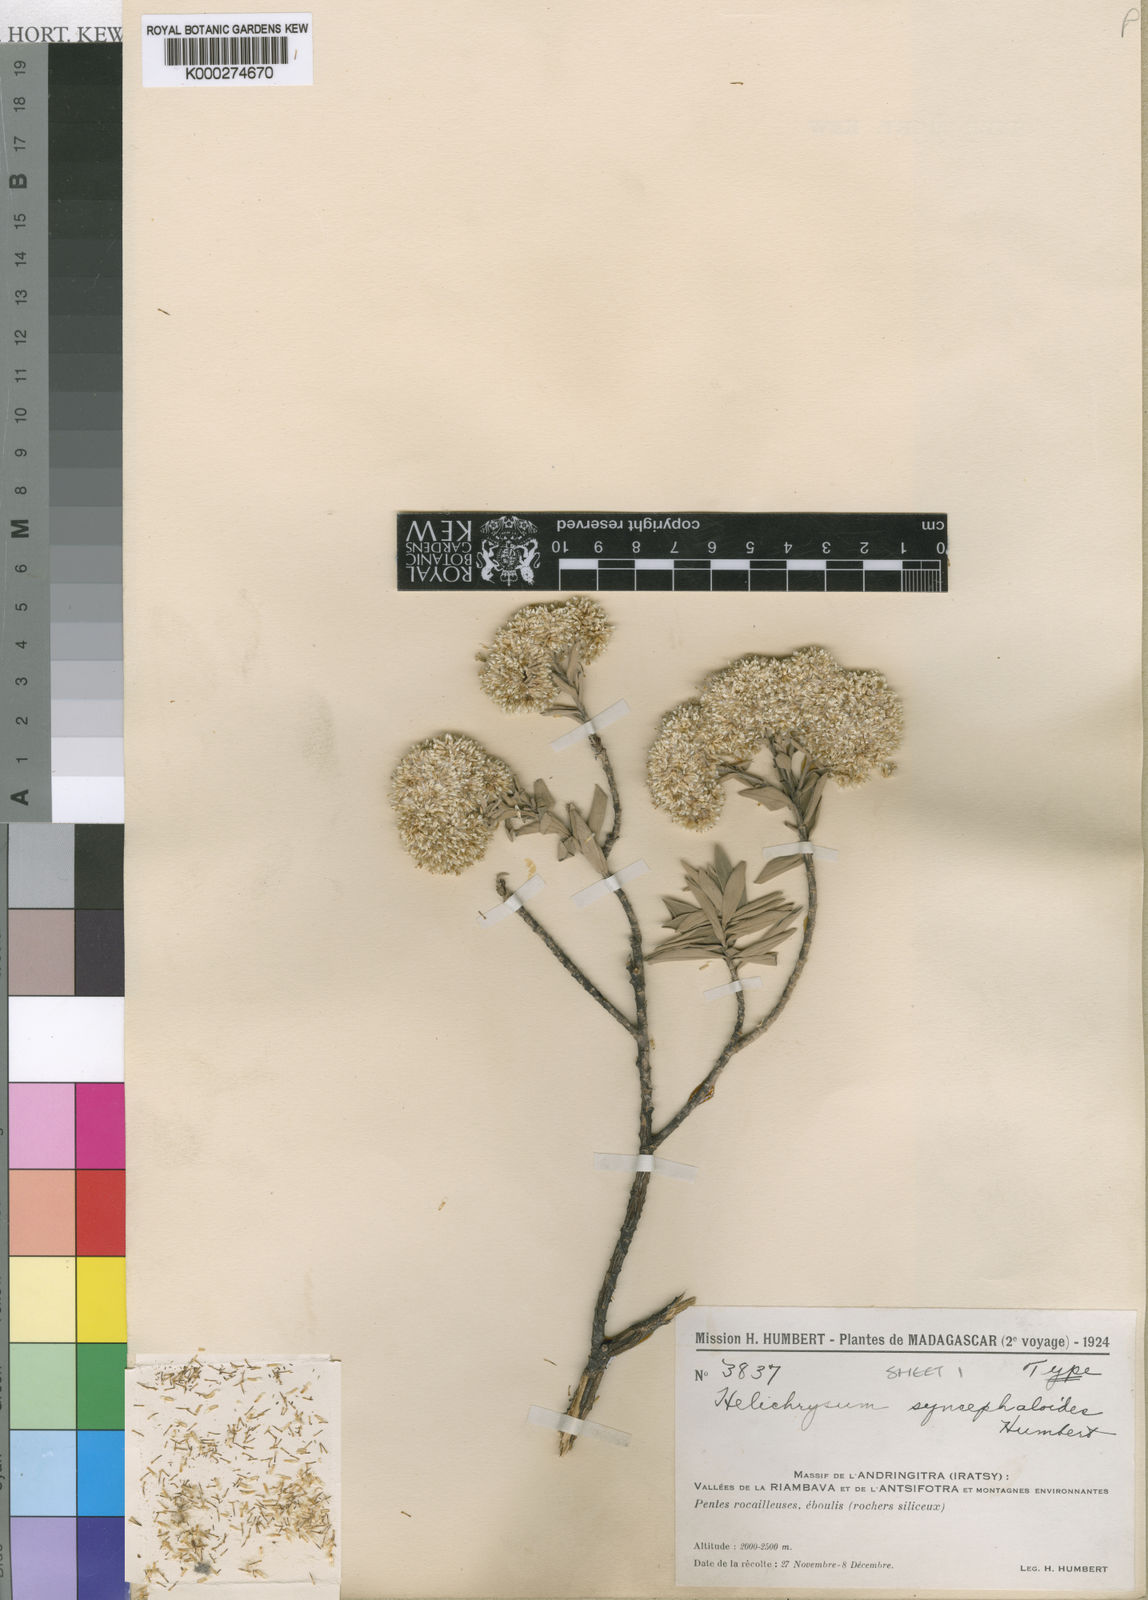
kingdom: Plantae
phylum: Tracheophyta
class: Magnoliopsida
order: Asterales
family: Asteraceae
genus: Helichrysum
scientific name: Helichrysum syncephaloides
